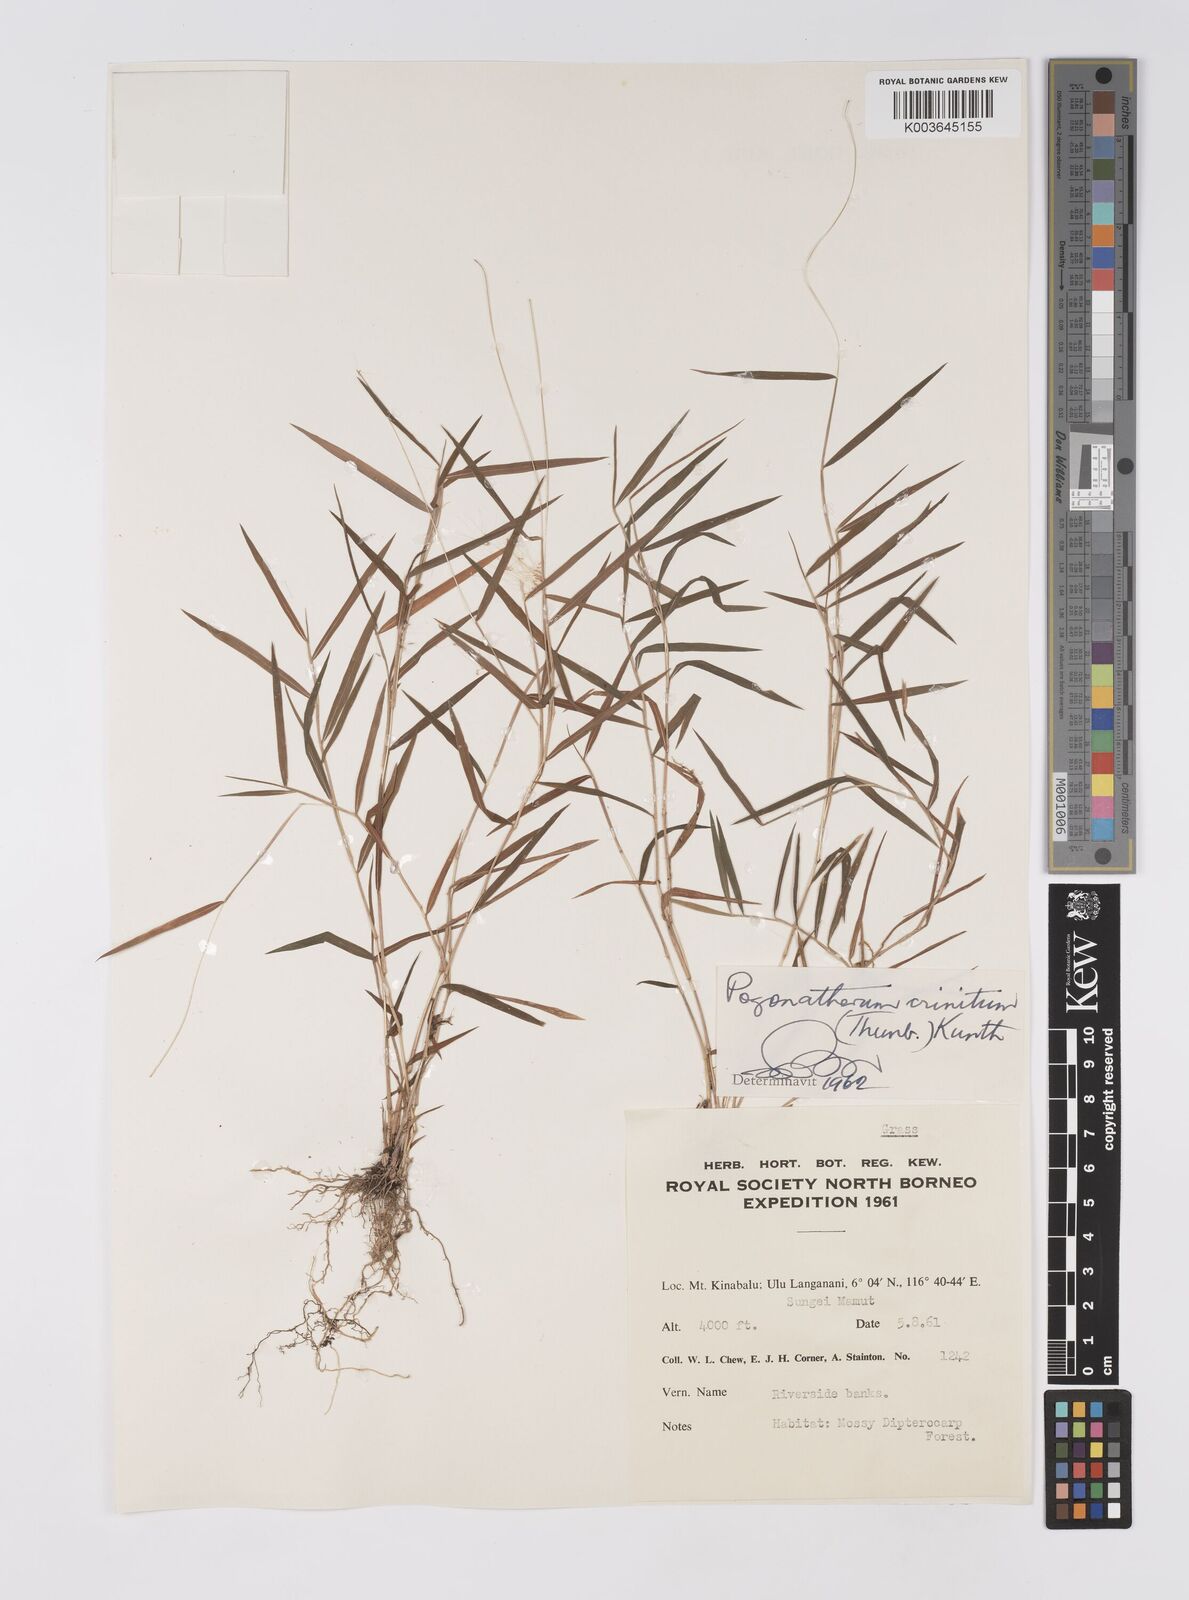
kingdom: Plantae
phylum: Tracheophyta
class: Liliopsida
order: Poales
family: Poaceae
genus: Pogonatherum
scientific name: Pogonatherum crinitum
